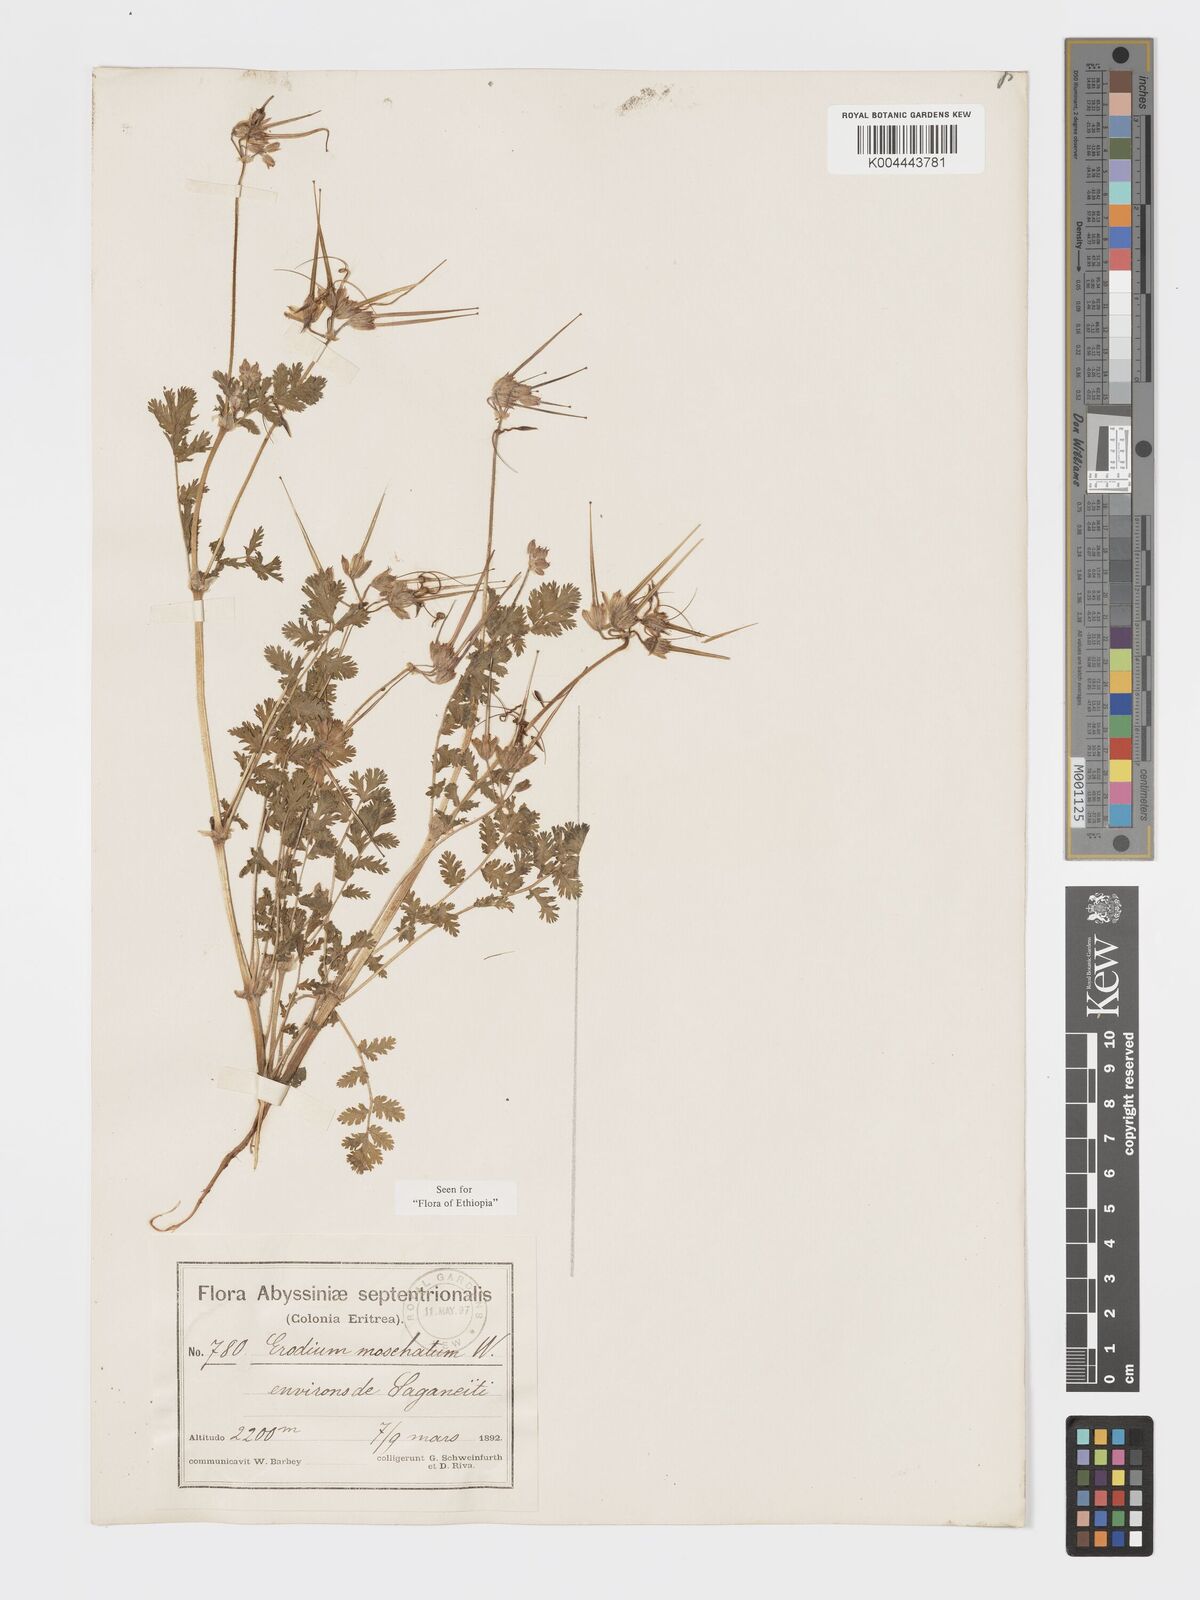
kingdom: Plantae
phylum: Tracheophyta
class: Magnoliopsida
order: Geraniales
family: Geraniaceae
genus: Erodium
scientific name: Erodium moschatum
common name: Musk stork's-bill
